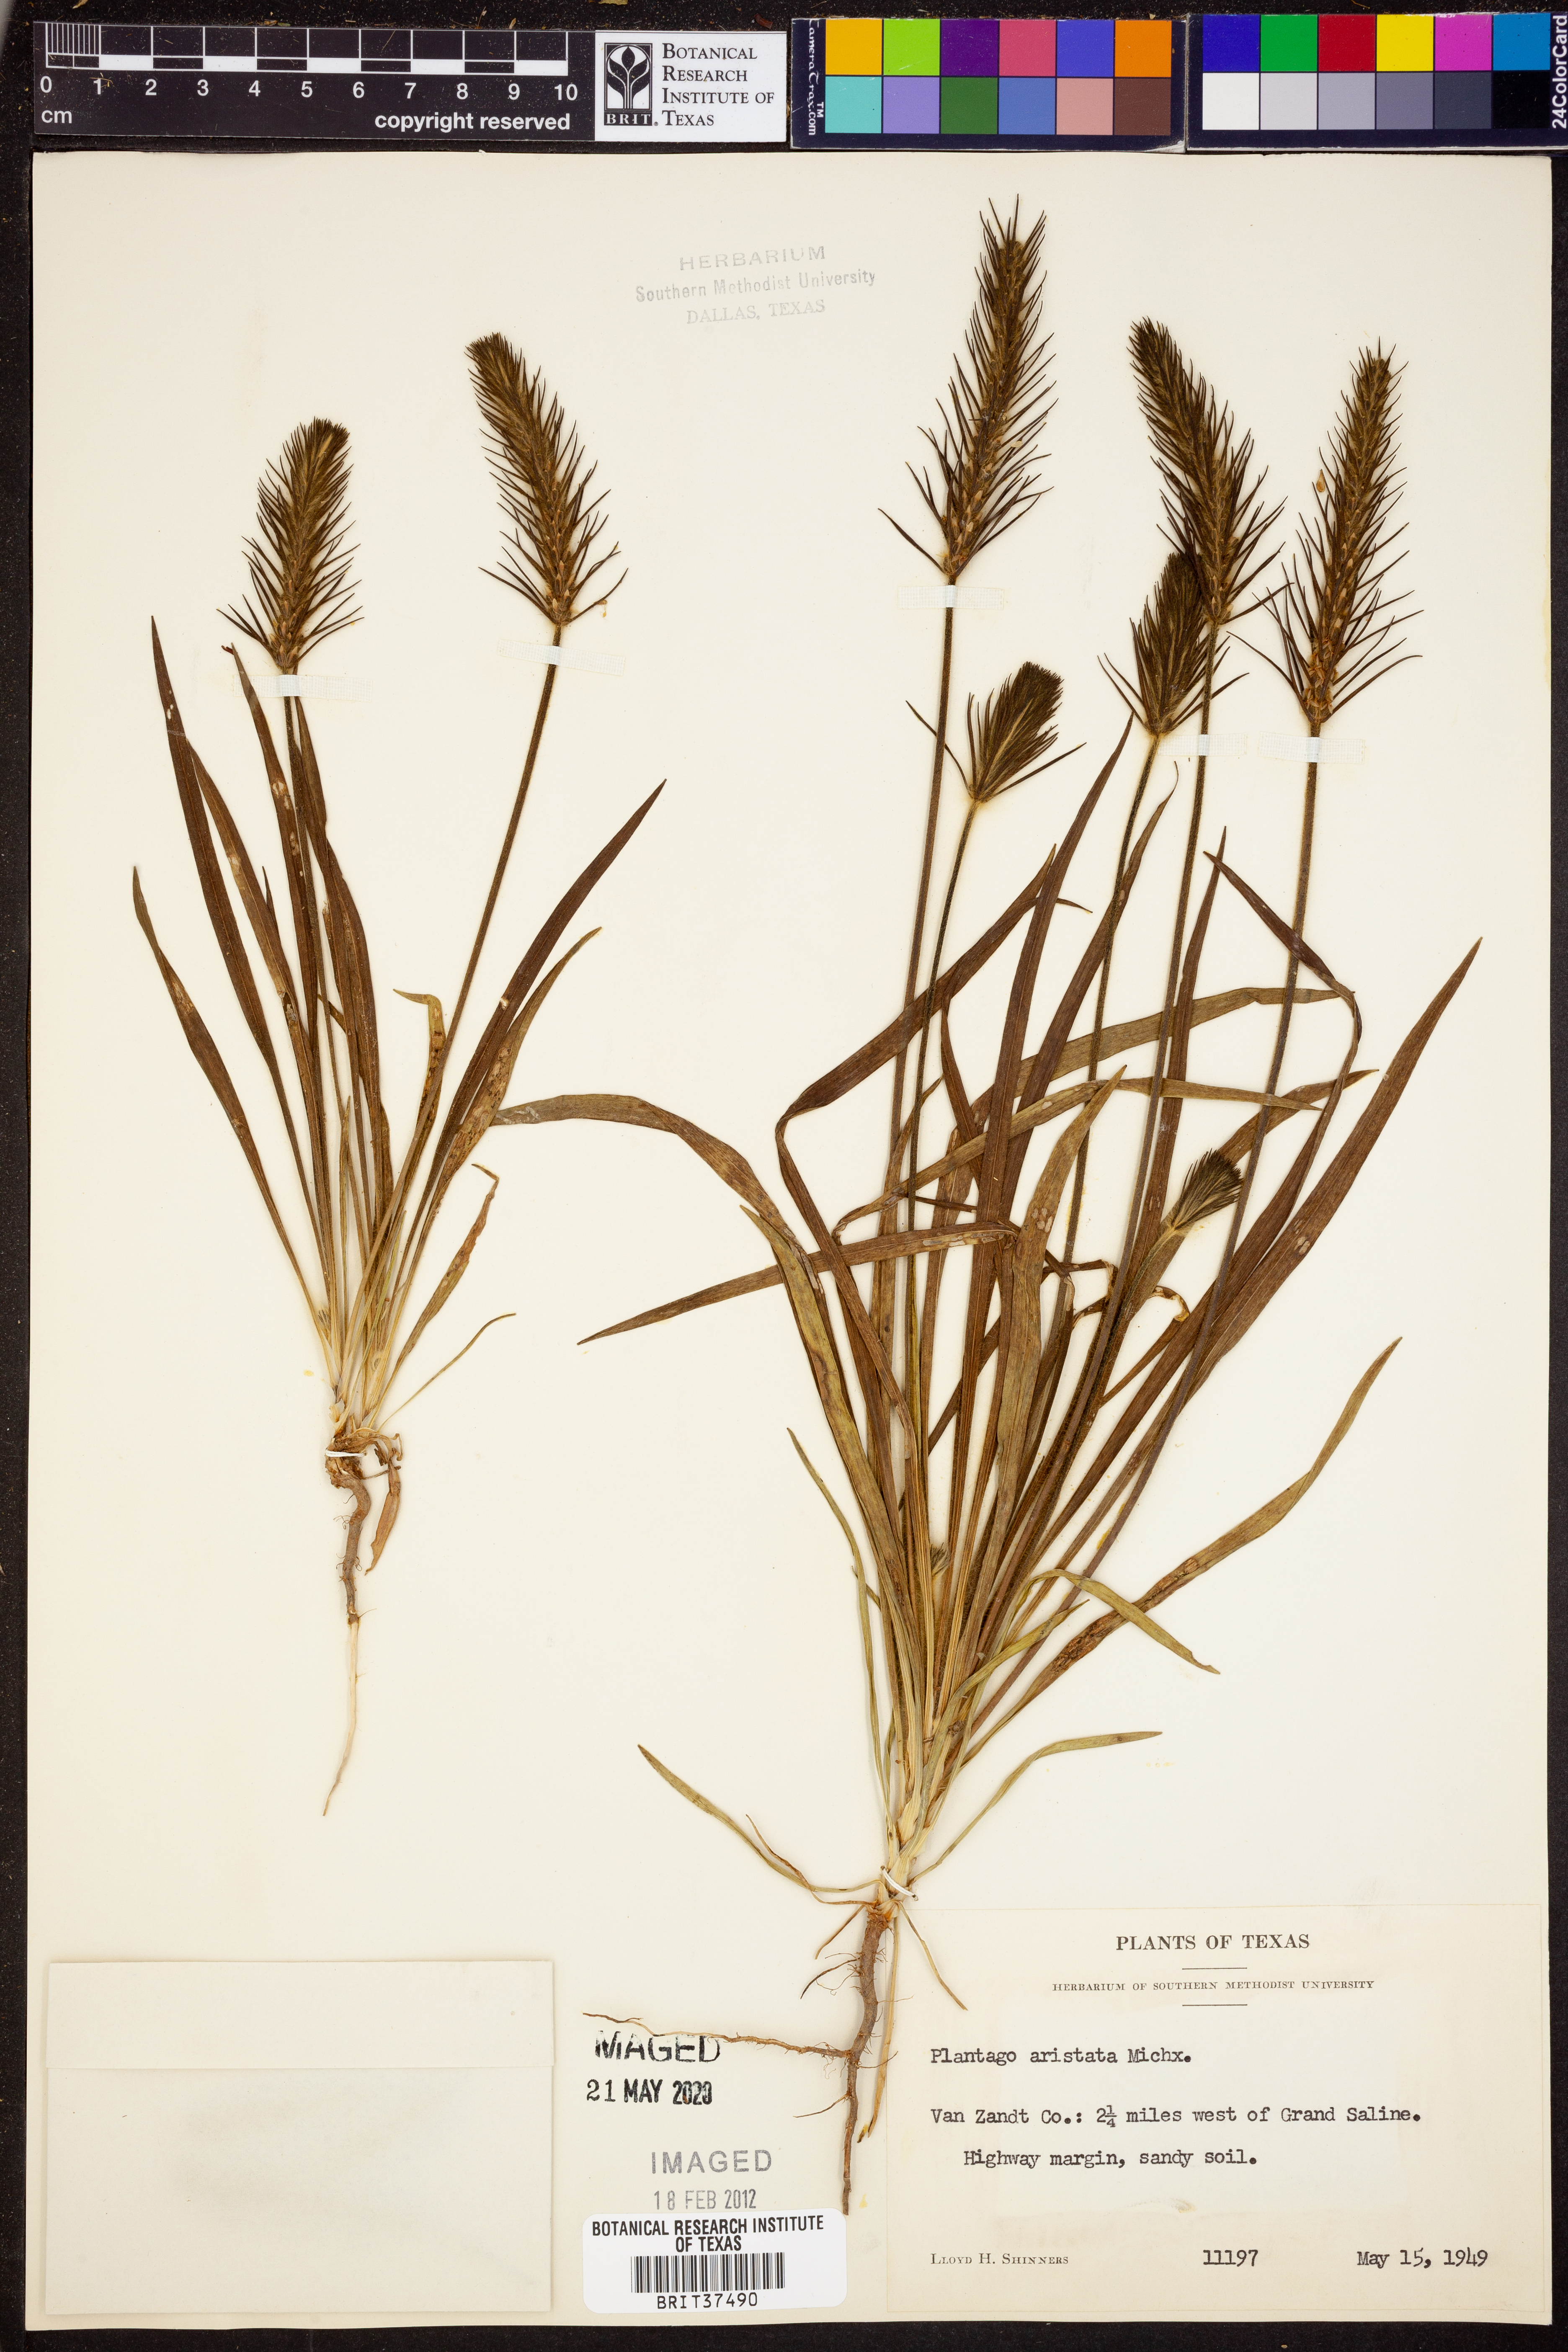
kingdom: Plantae
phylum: Tracheophyta
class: Magnoliopsida
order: Lamiales
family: Plantaginaceae
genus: Plantago
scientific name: Plantago aristata
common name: Bracted plantain
